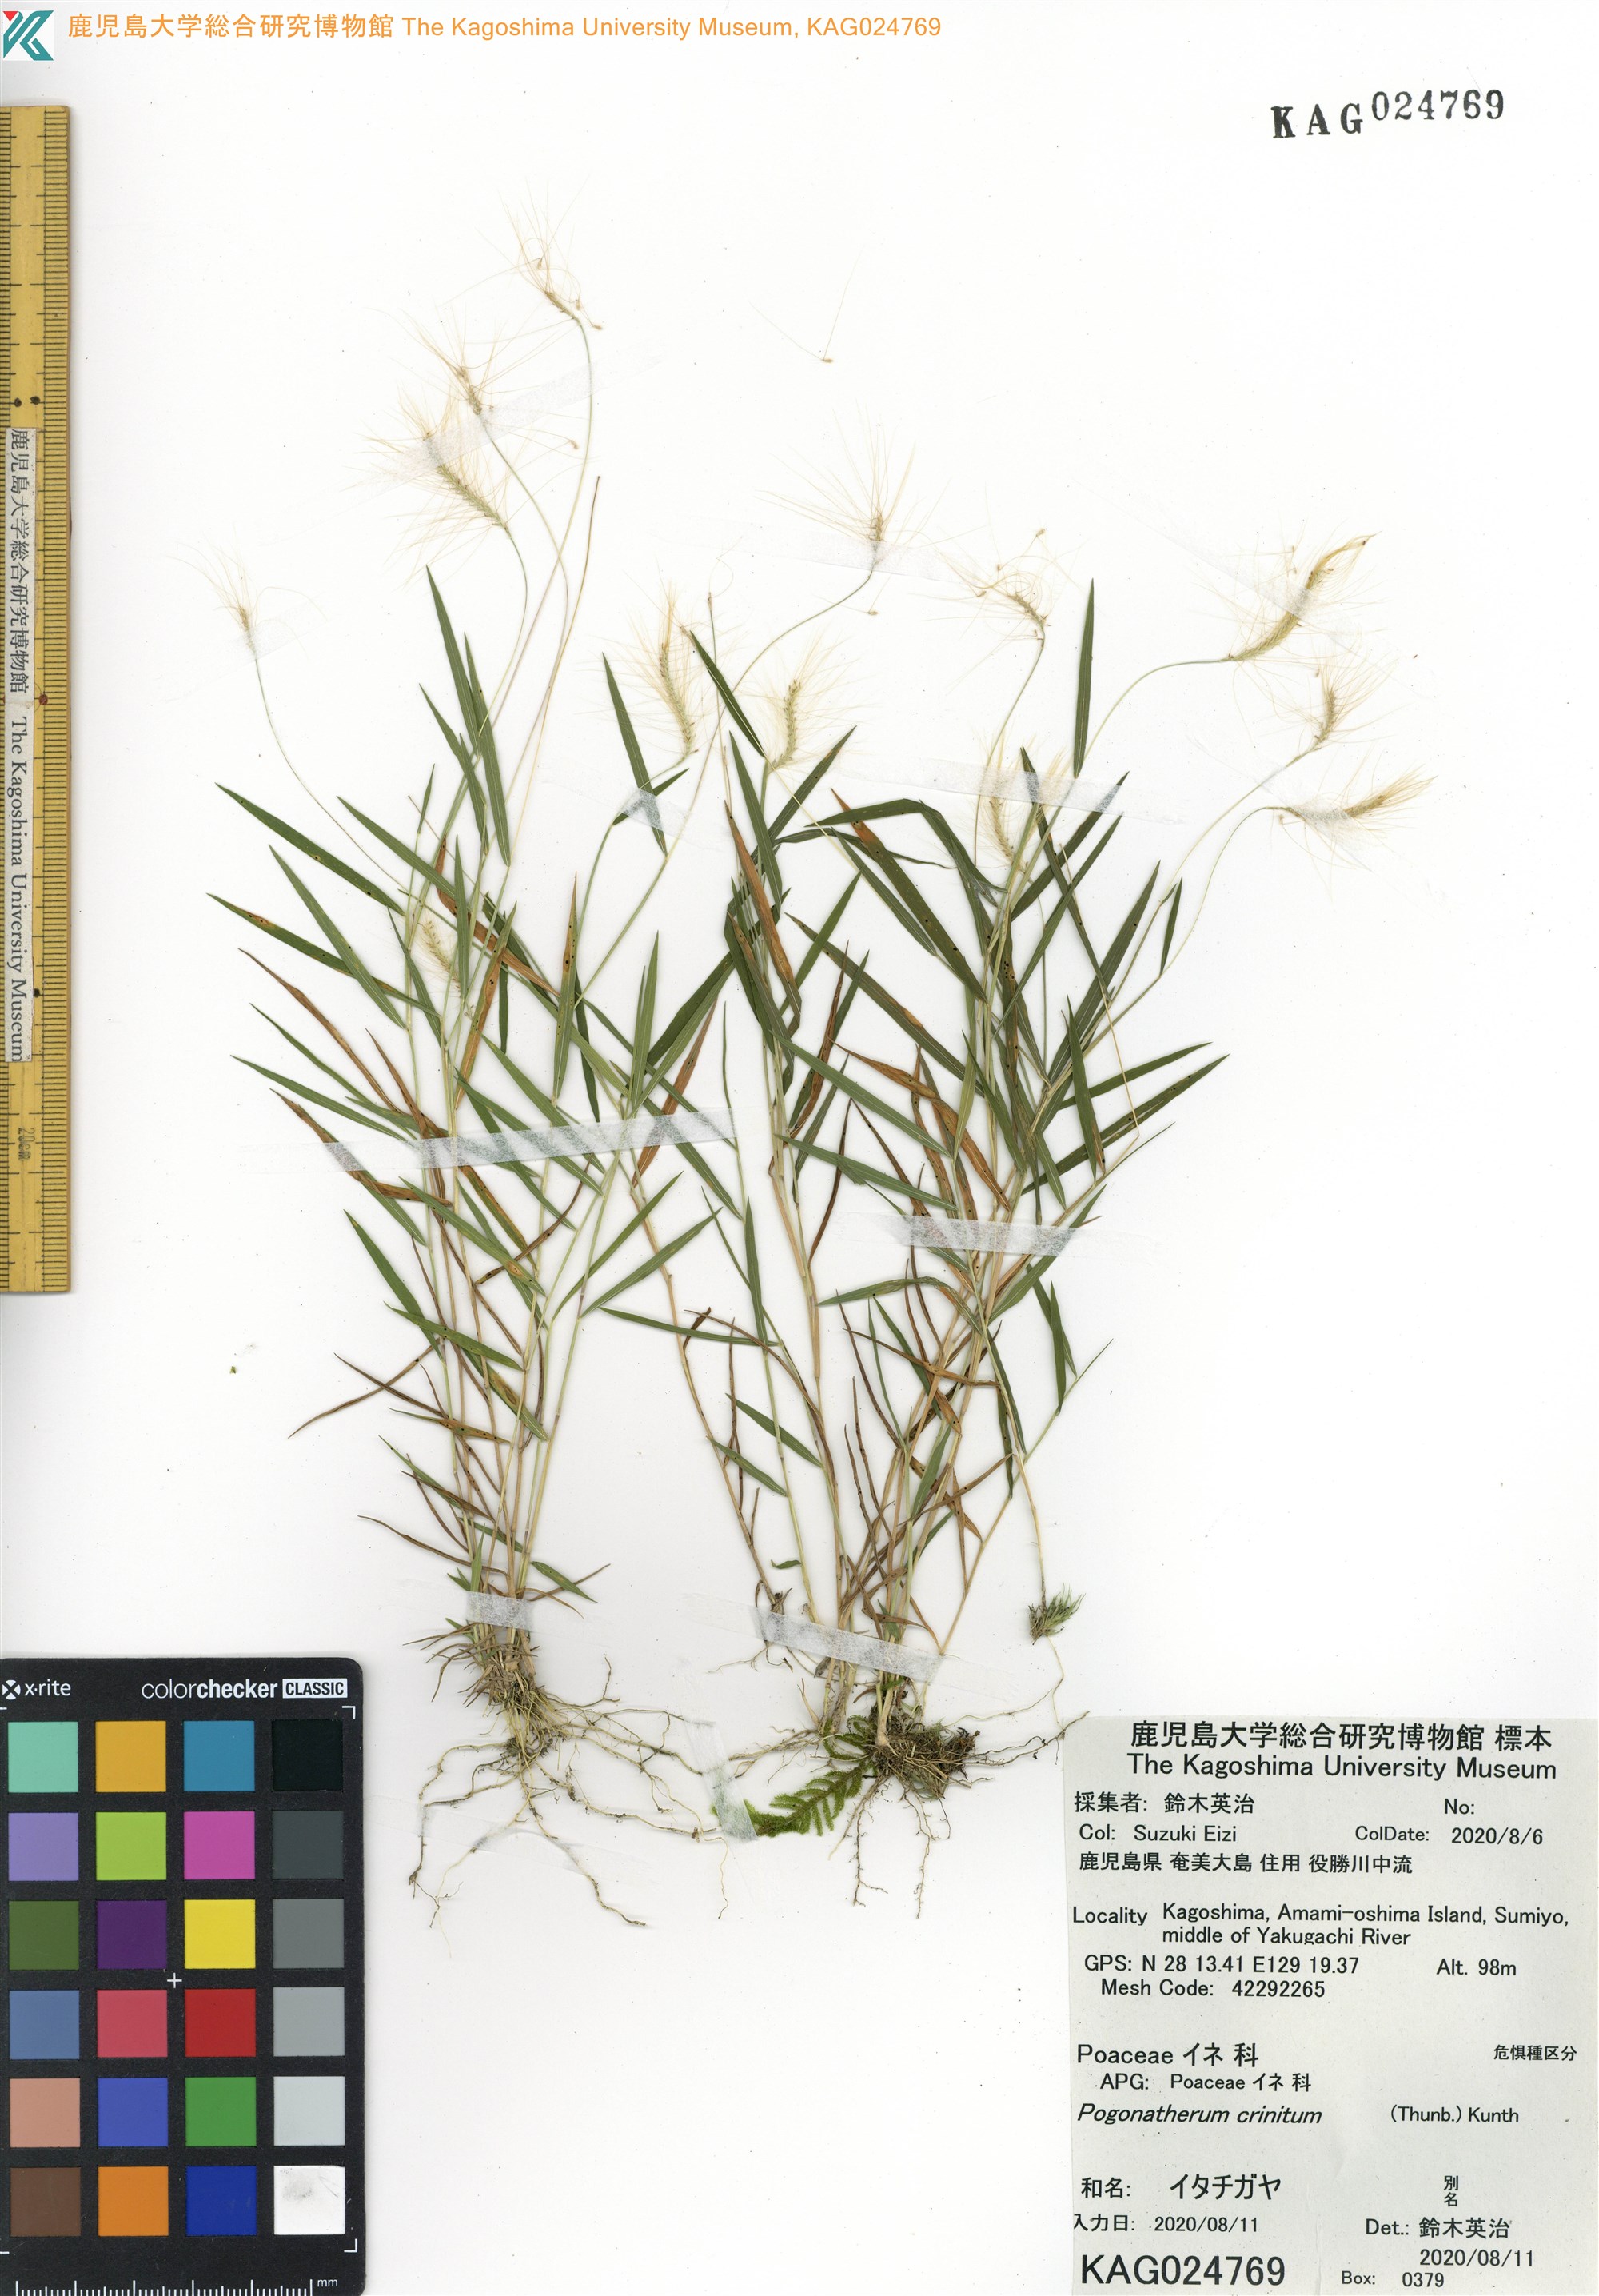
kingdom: Plantae
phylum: Tracheophyta
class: Liliopsida
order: Poales
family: Poaceae
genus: Pogonatherum
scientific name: Pogonatherum crinitum
